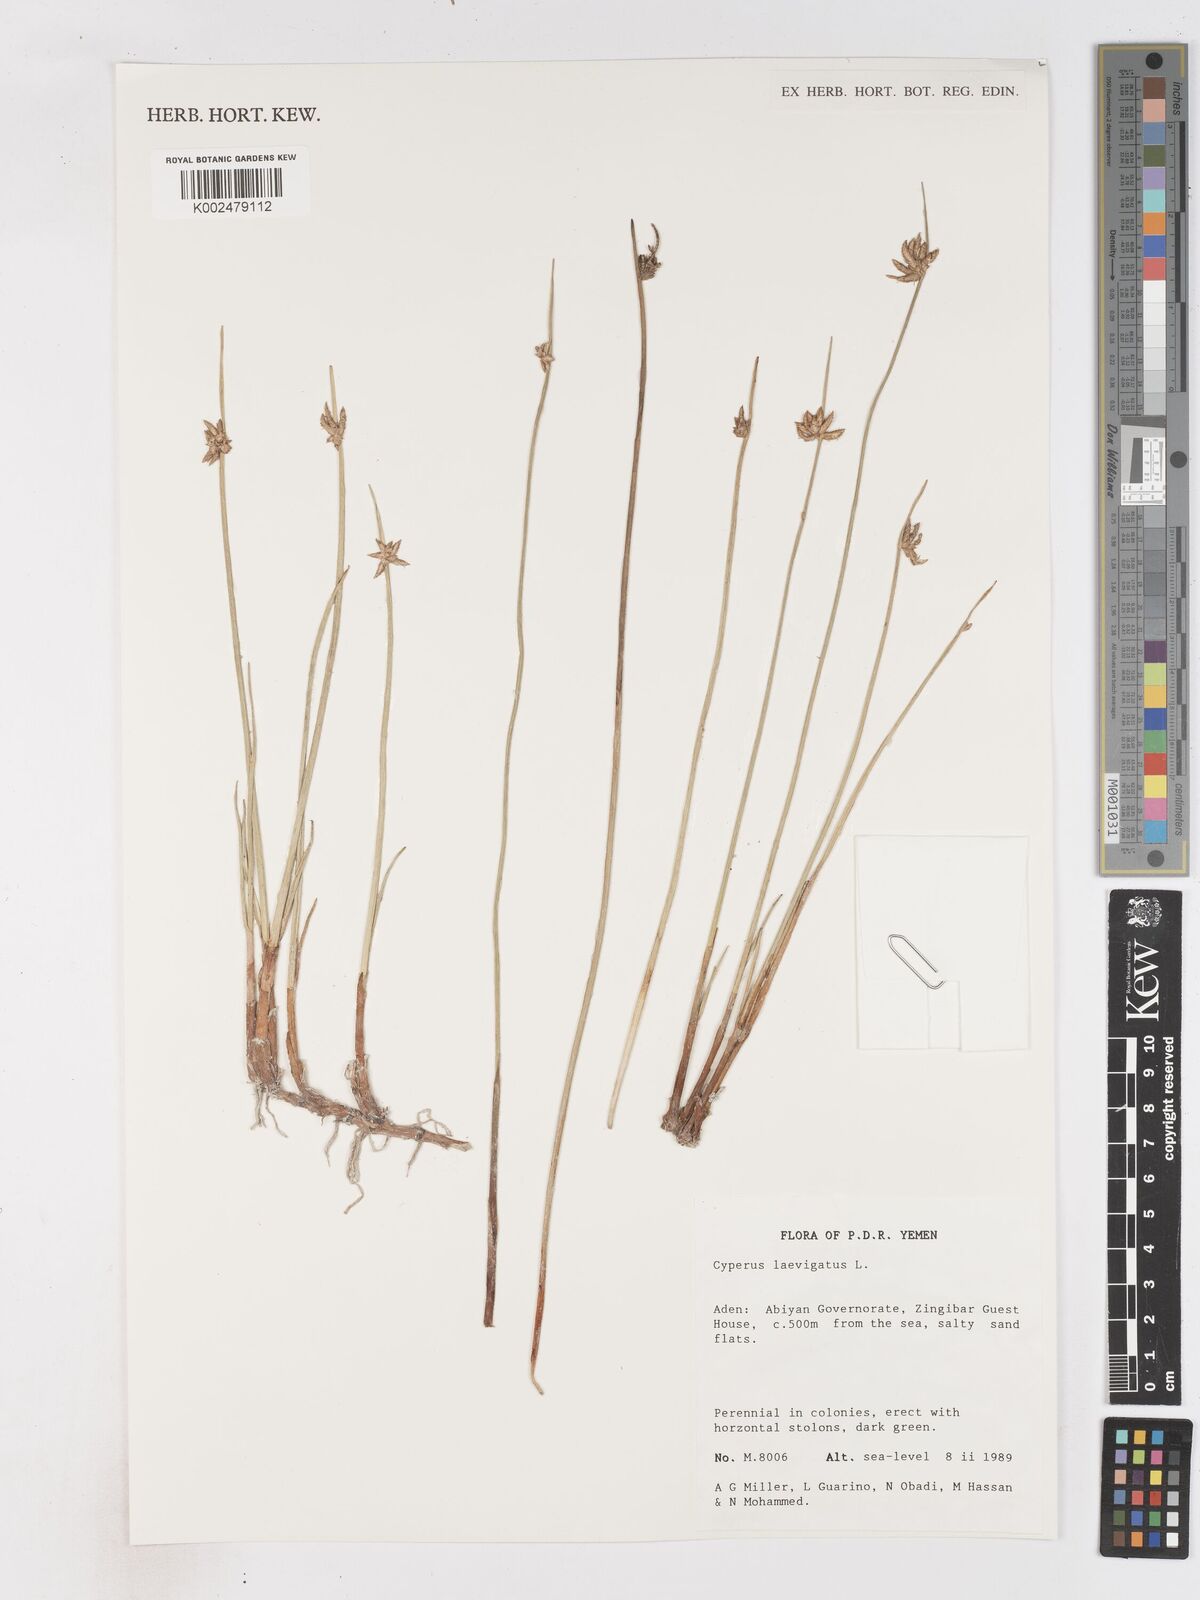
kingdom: Plantae
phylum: Tracheophyta
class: Liliopsida
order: Poales
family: Cyperaceae
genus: Cyperus
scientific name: Cyperus laevigatus
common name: Smooth flat sedge
